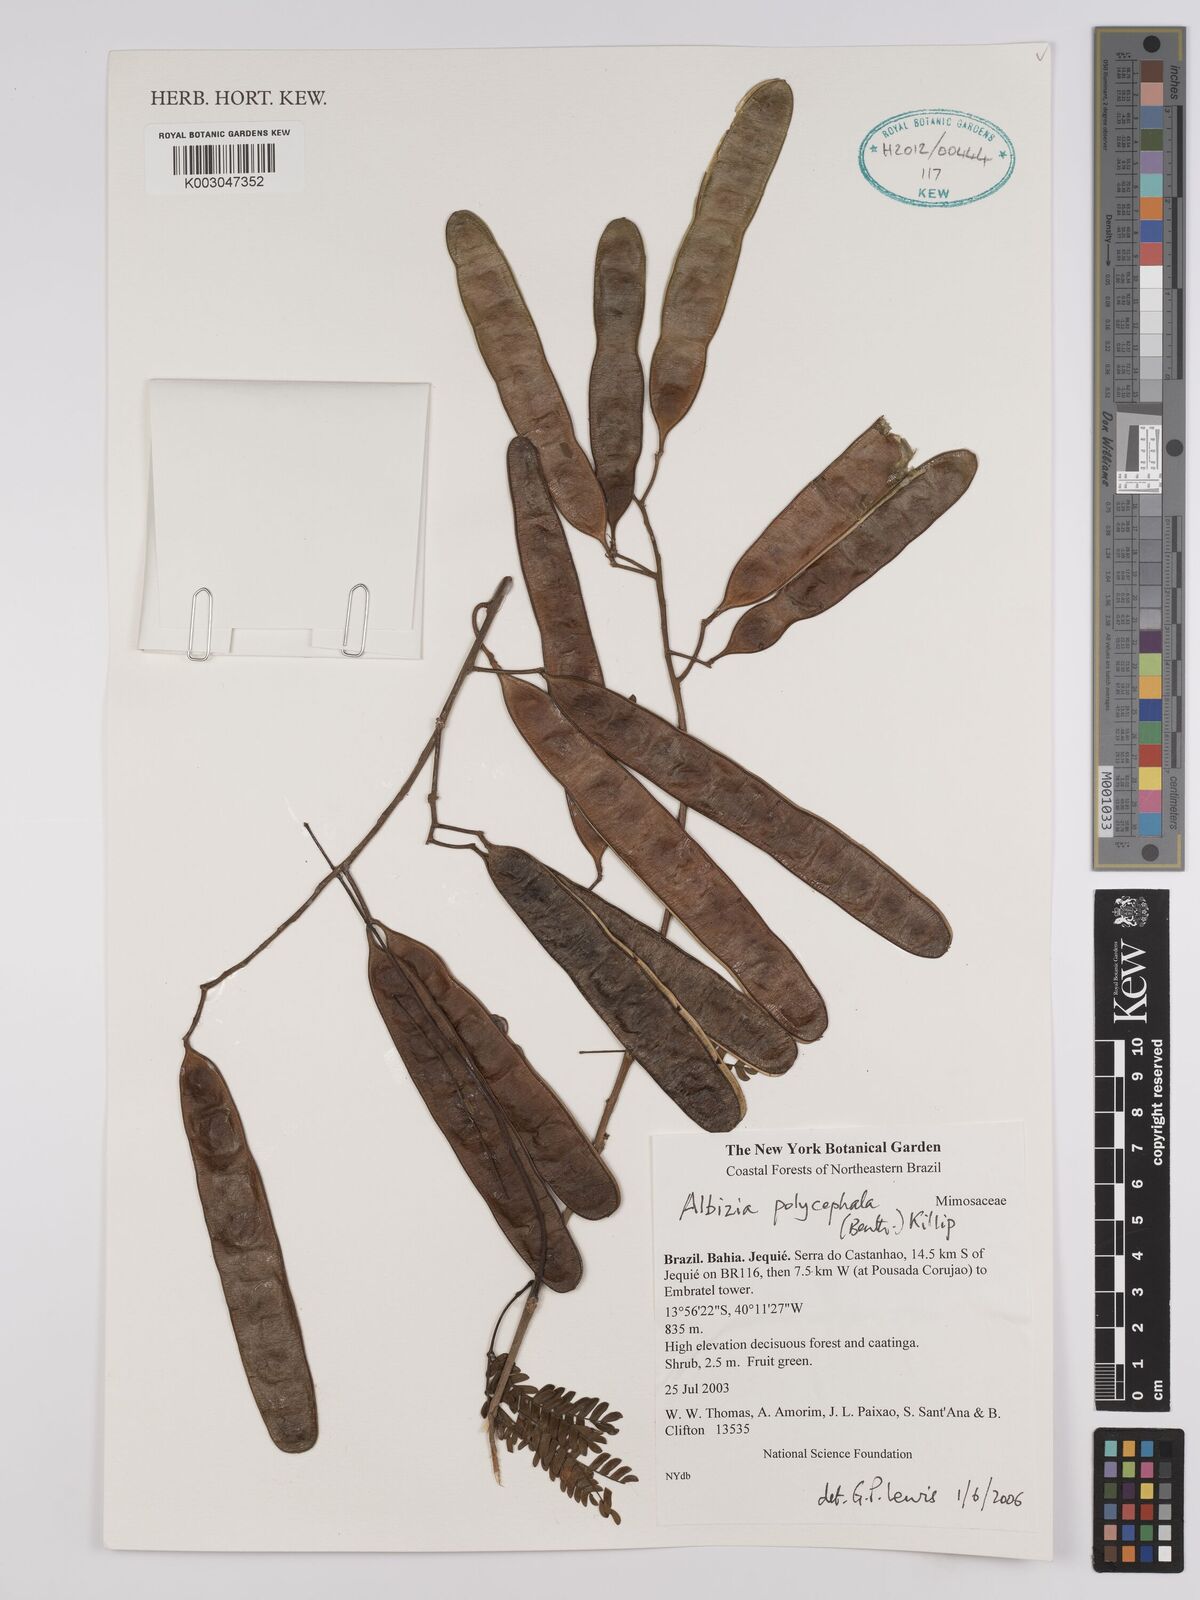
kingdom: Plantae
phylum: Tracheophyta
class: Magnoliopsida
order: Fabales
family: Fabaceae
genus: Albizia
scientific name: Albizia polycephala
